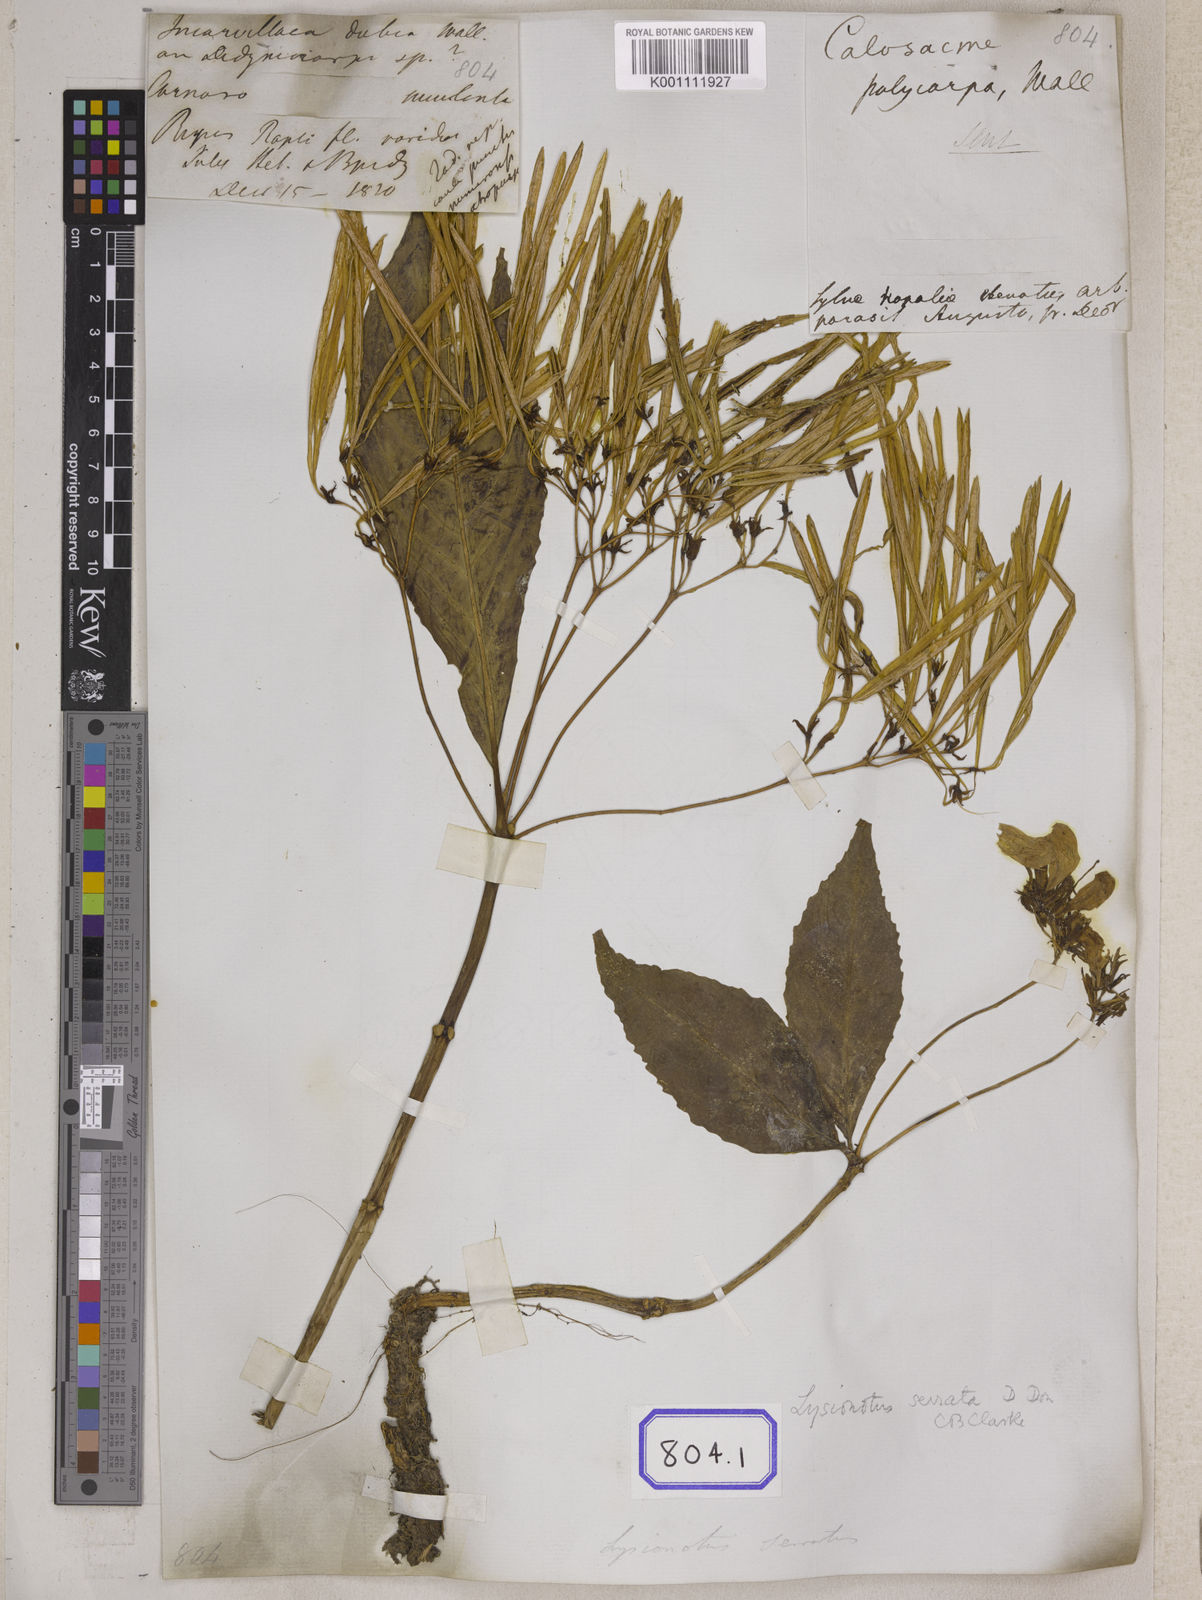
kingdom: Plantae
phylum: Tracheophyta
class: Magnoliopsida
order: Lamiales
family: Gesneriaceae
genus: Lysionotus
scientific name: Lysionotus serratus
